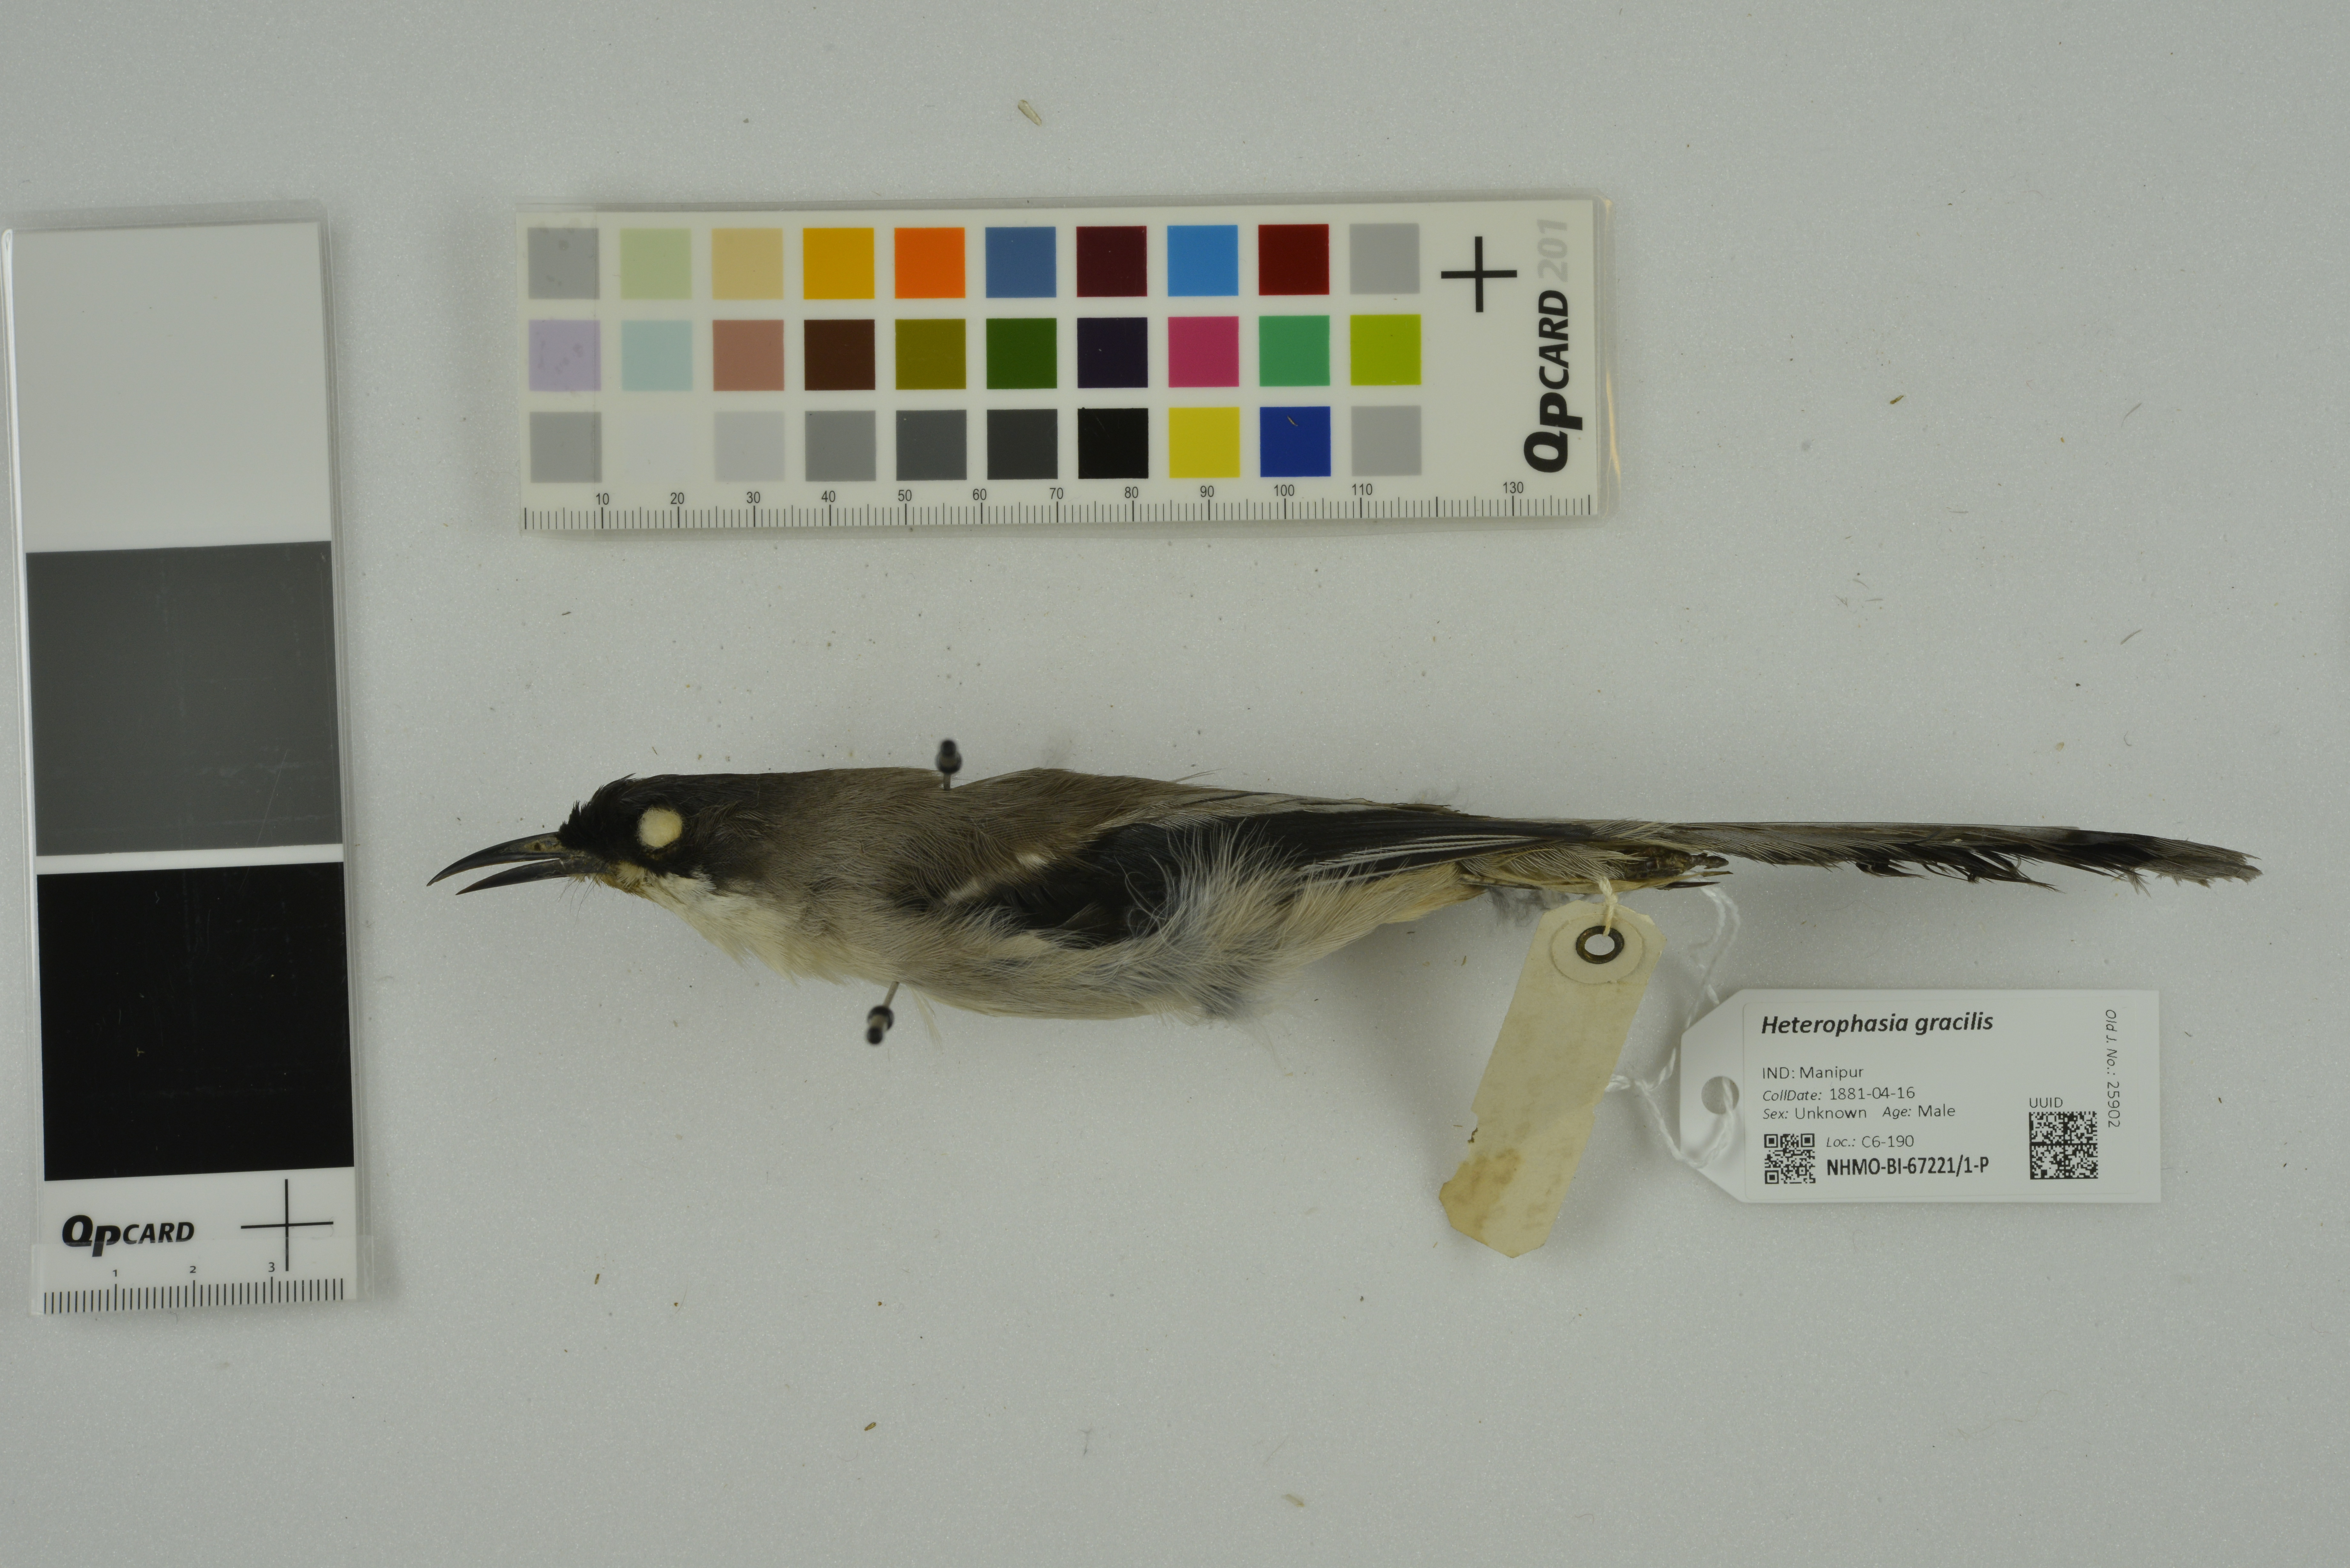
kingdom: Animalia
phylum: Chordata
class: Aves
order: Passeriformes
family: Leiothrichidae
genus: Heterophasia
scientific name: Heterophasia gracilis
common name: Grey sibia
